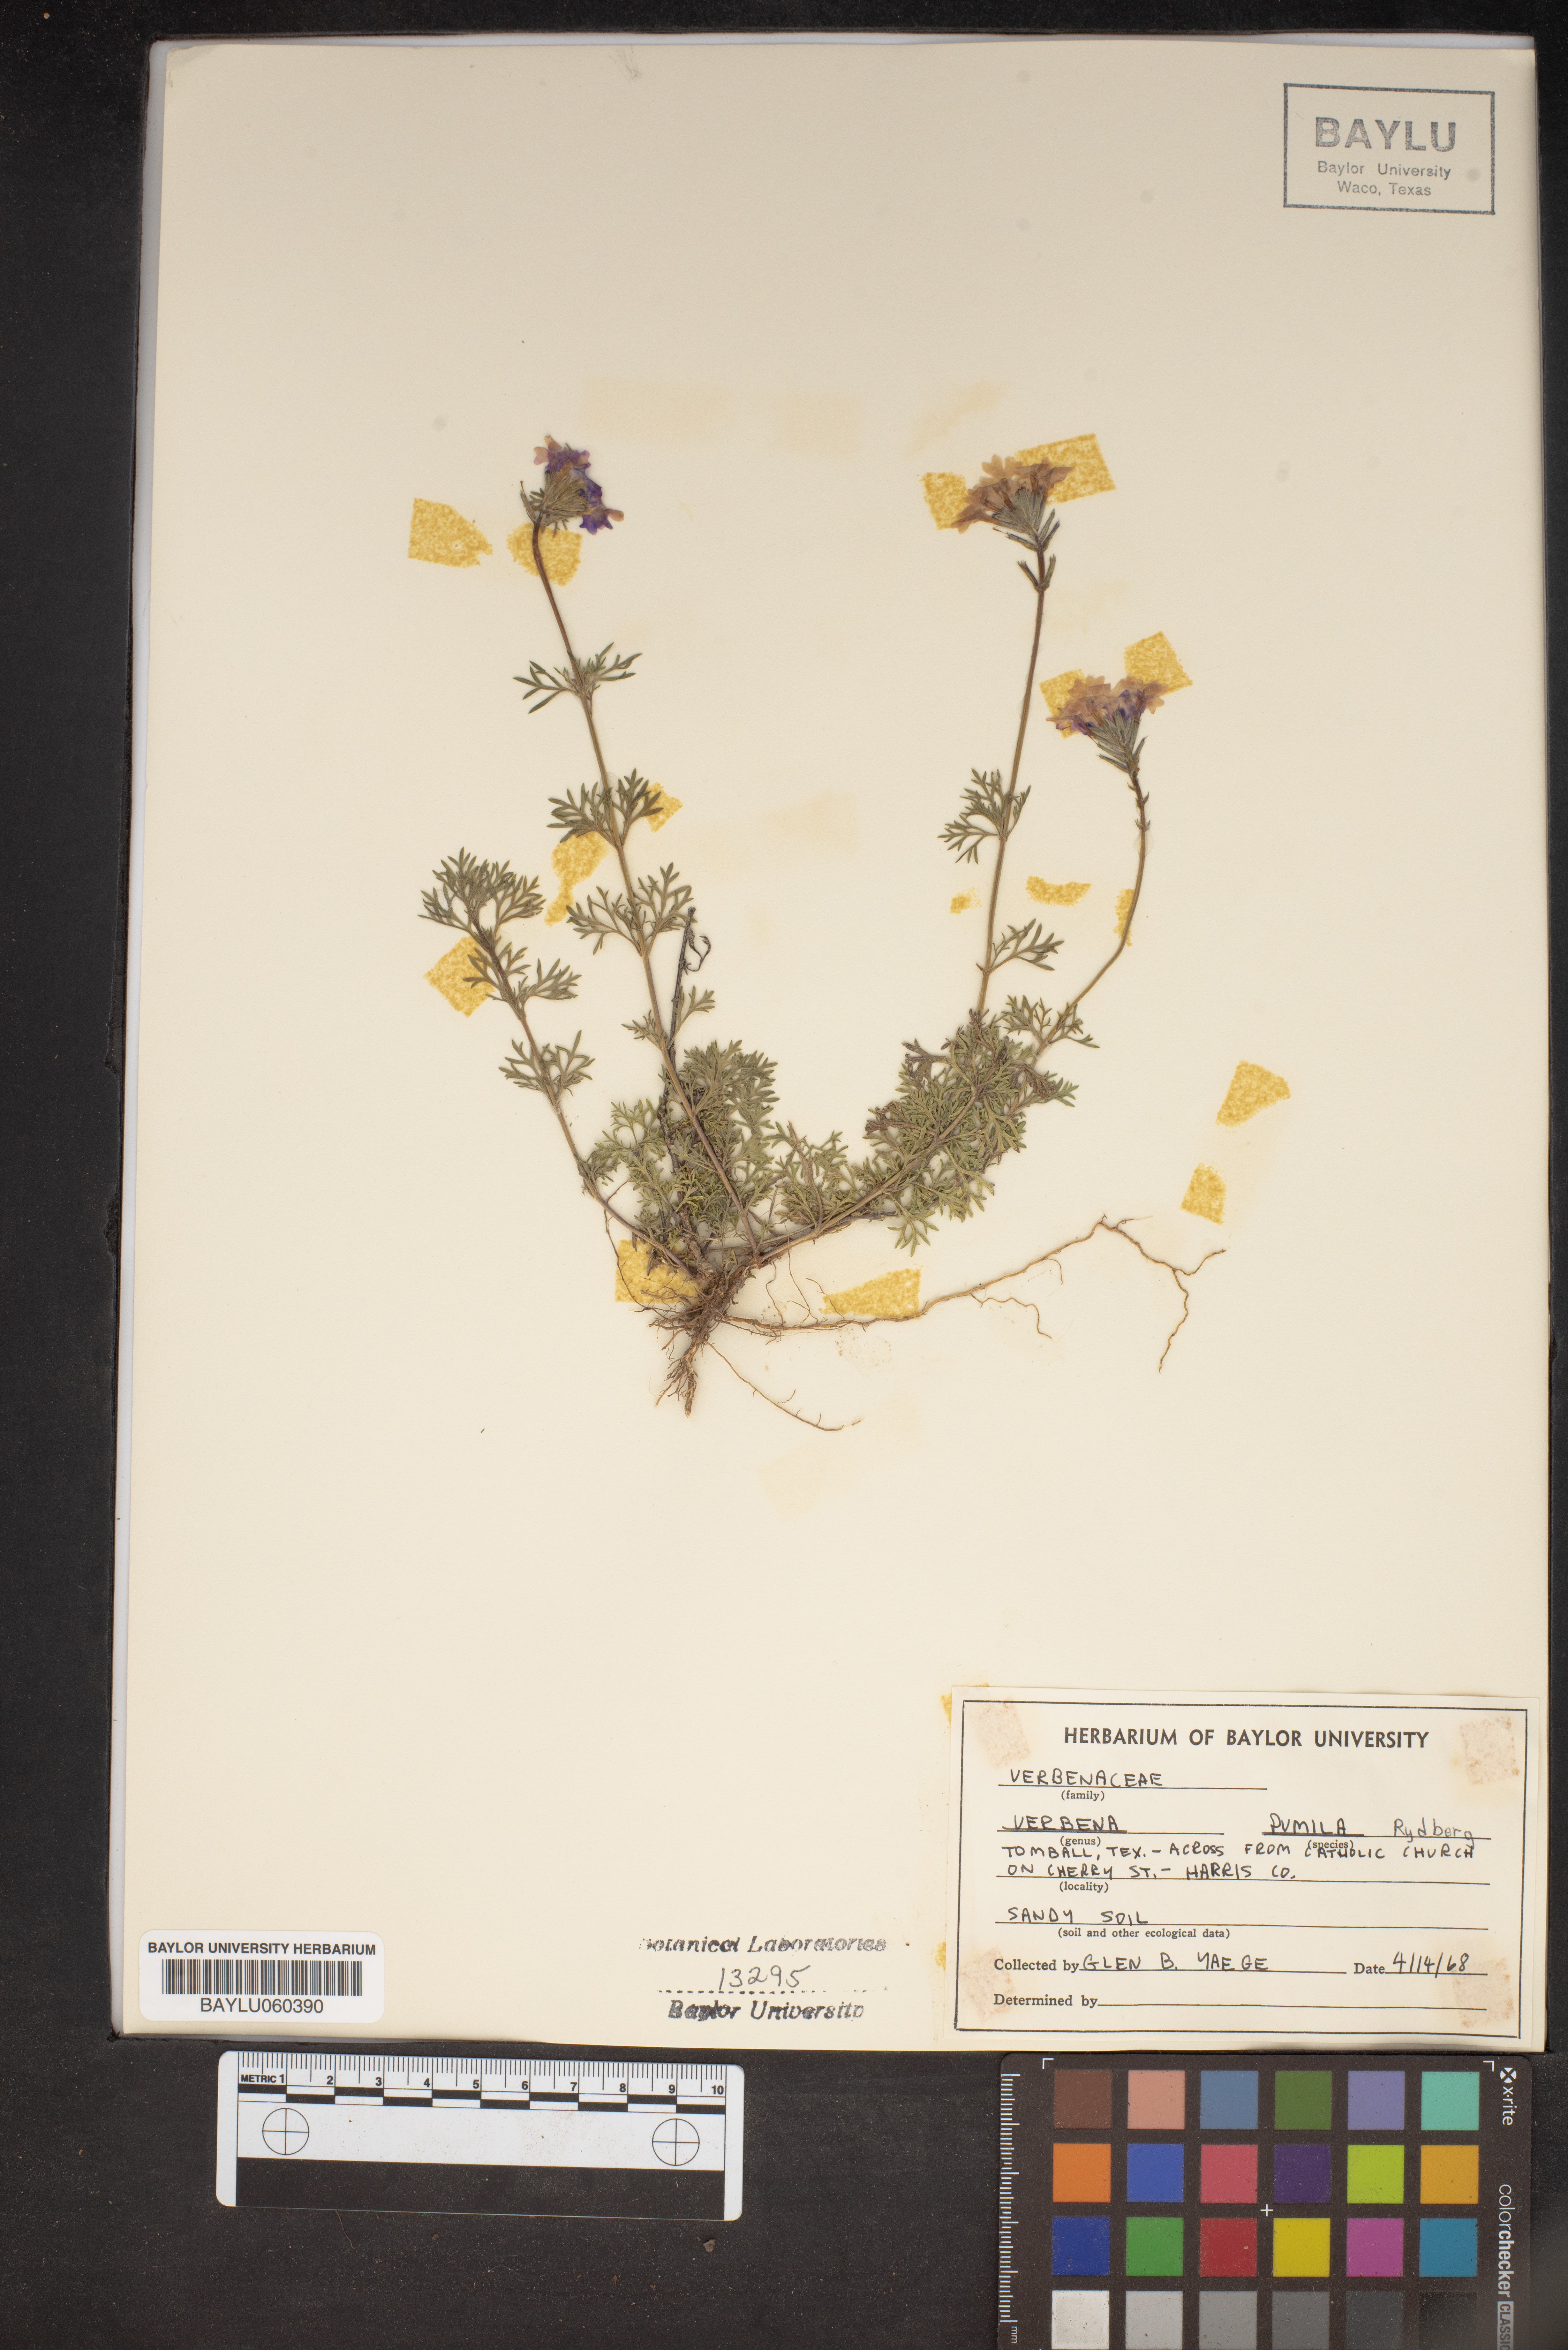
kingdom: Plantae
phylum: Tracheophyta
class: Magnoliopsida
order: Lamiales
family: Verbenaceae
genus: Verbena
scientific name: Verbena pumila
